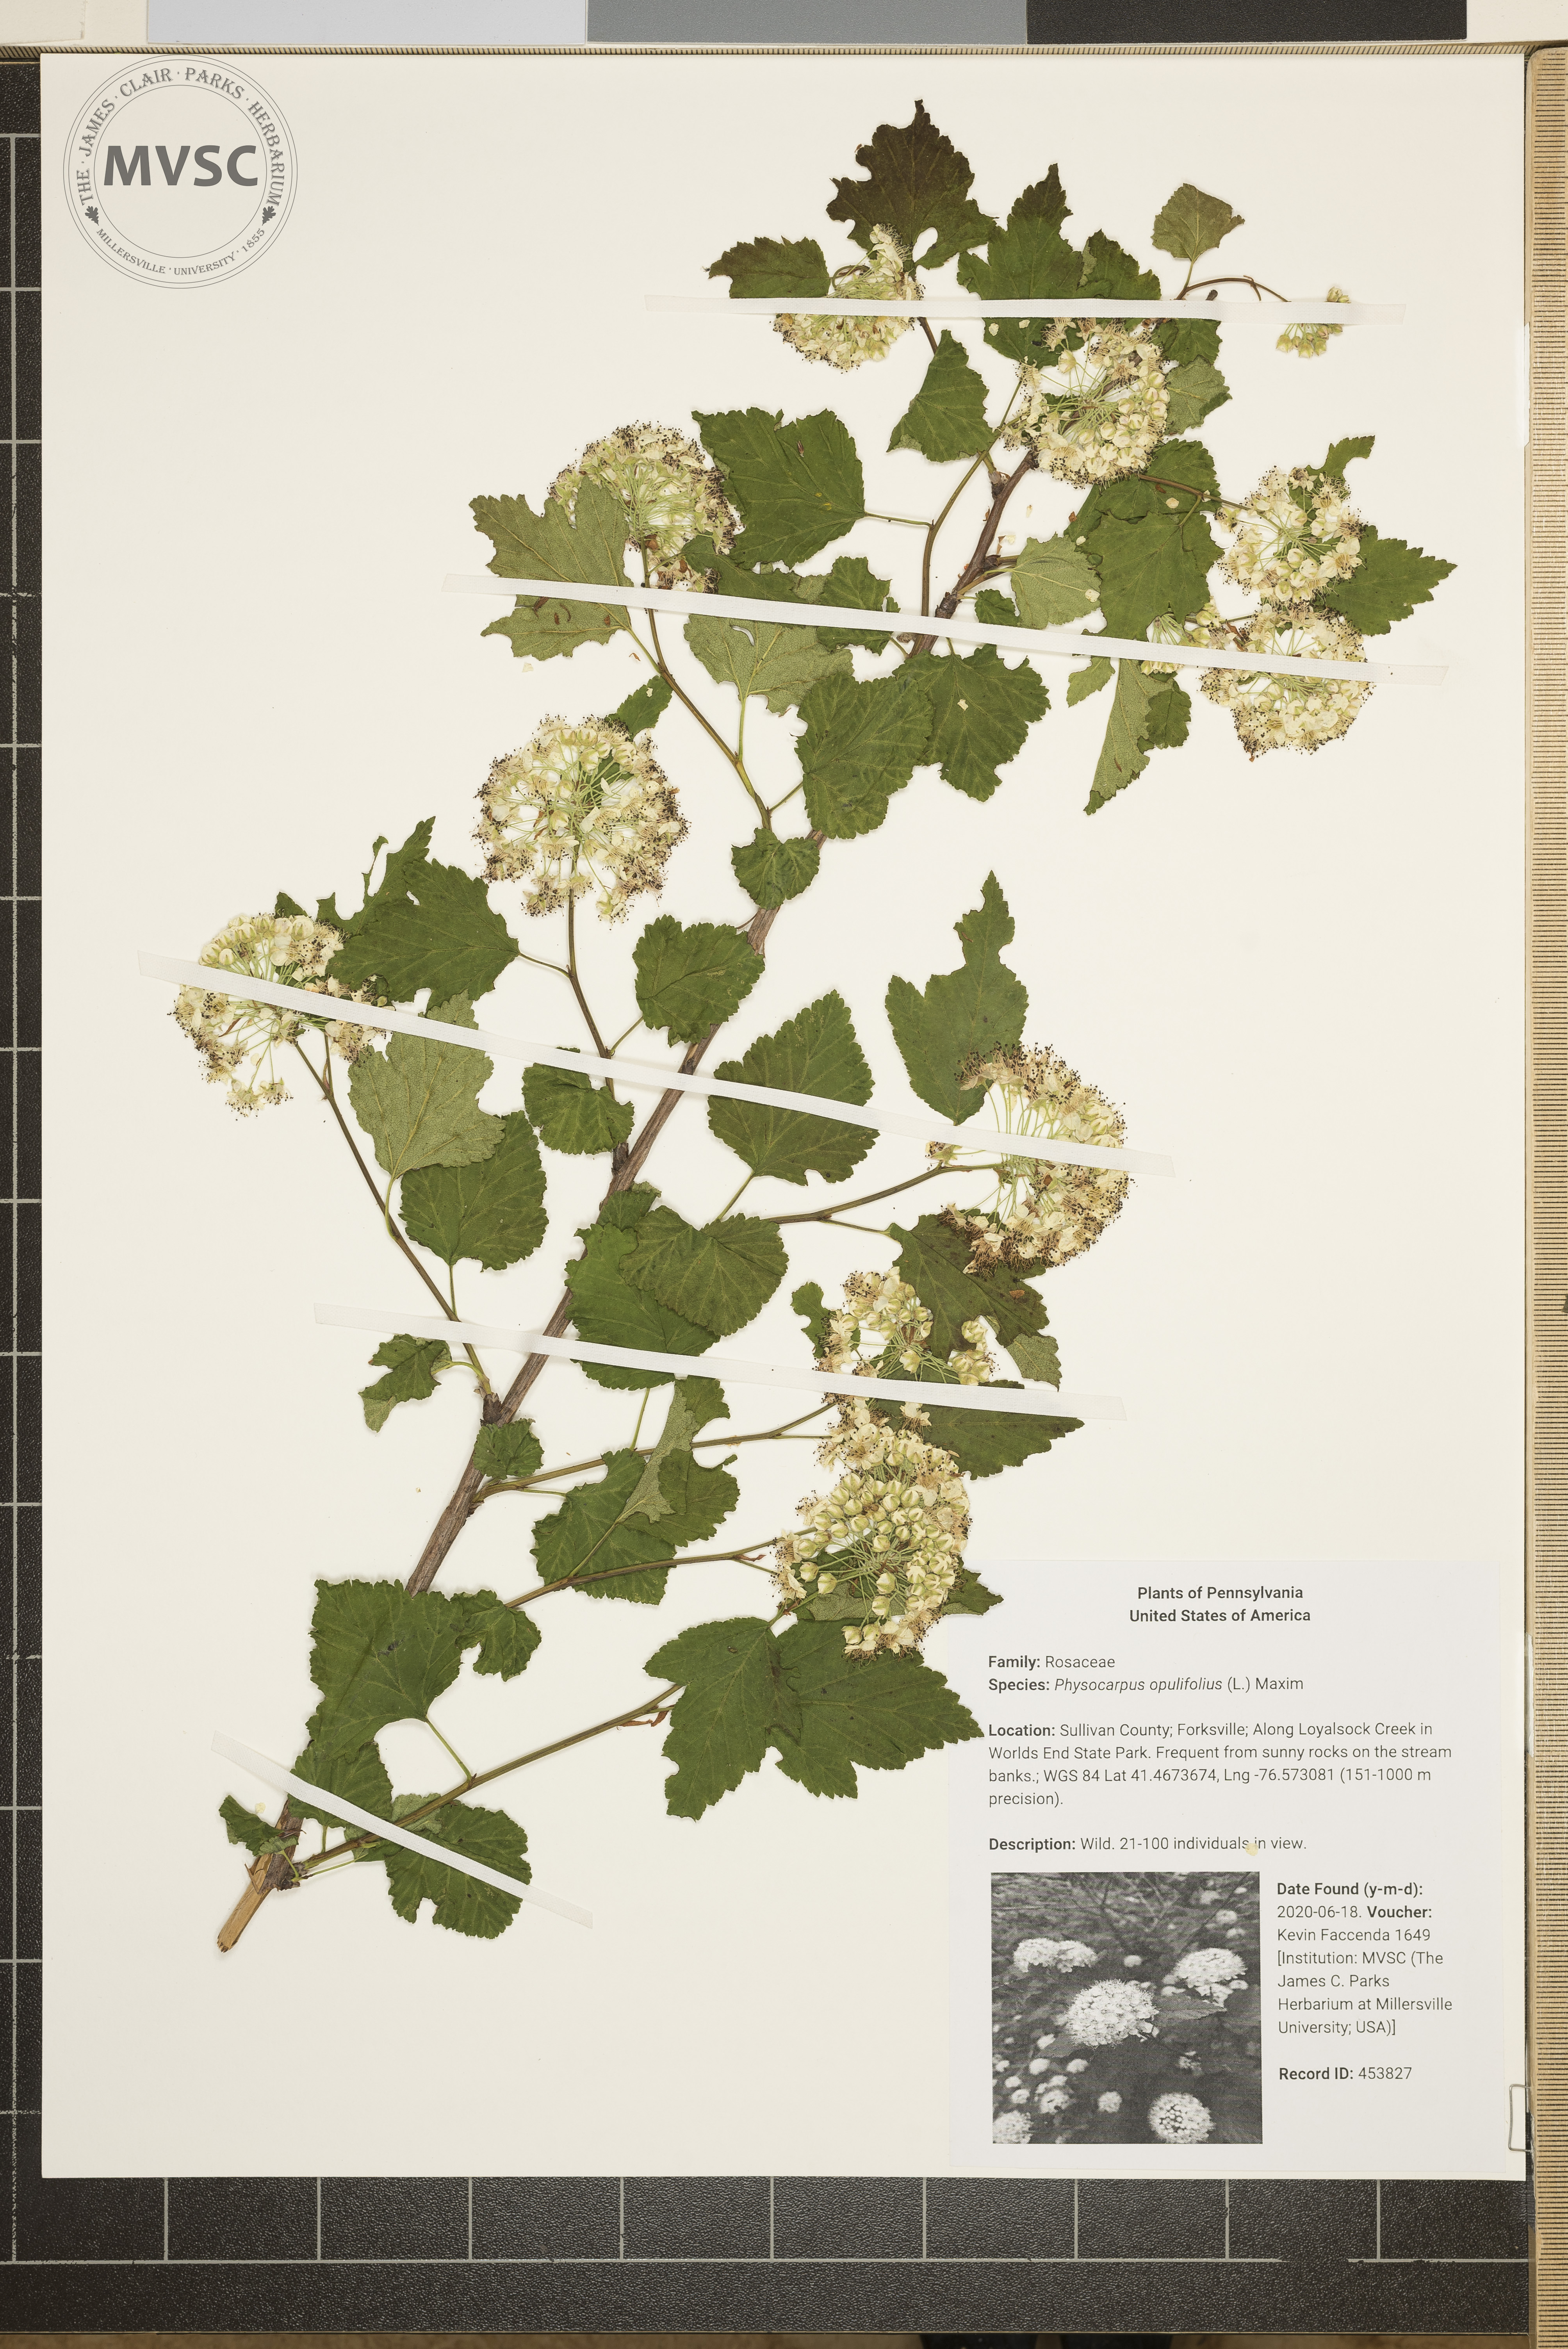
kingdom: Plantae
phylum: Tracheophyta
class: Magnoliopsida
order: Rosales
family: Rosaceae
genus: Physocarpus
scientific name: Physocarpus opulifolius
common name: Ninebark
